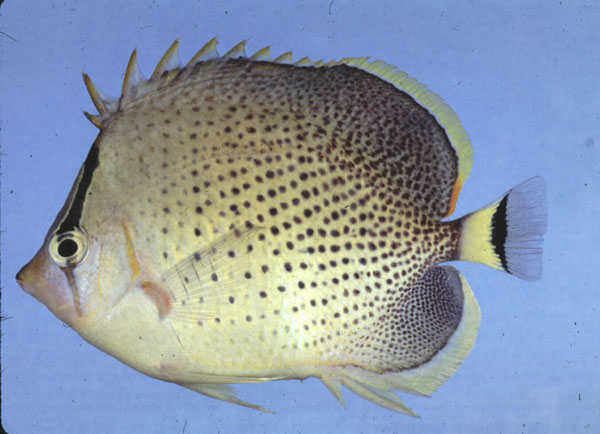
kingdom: Animalia
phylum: Chordata
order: Perciformes
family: Chaetodontidae
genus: Chaetodon
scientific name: Chaetodon guttatissimus
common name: Spotted butterflyfish
